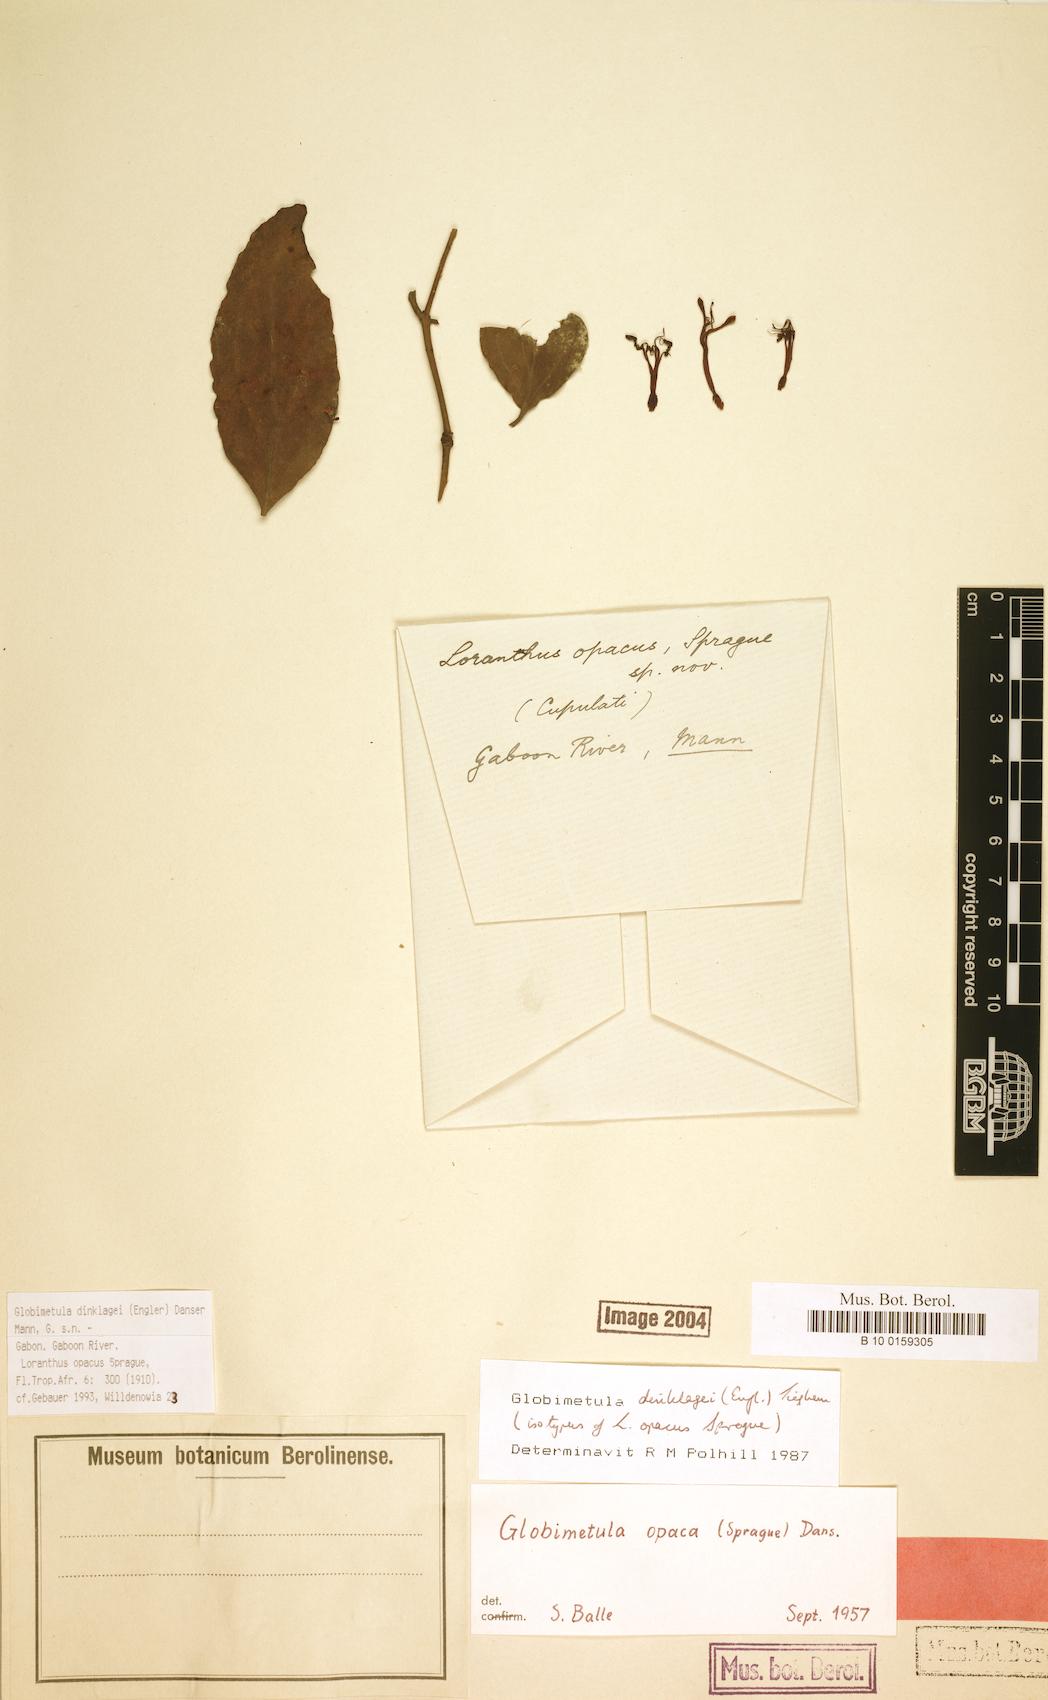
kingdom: Plantae
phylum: Tracheophyta
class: Magnoliopsida
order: Santalales
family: Loranthaceae
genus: Globimetula
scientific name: Globimetula dinklagei
